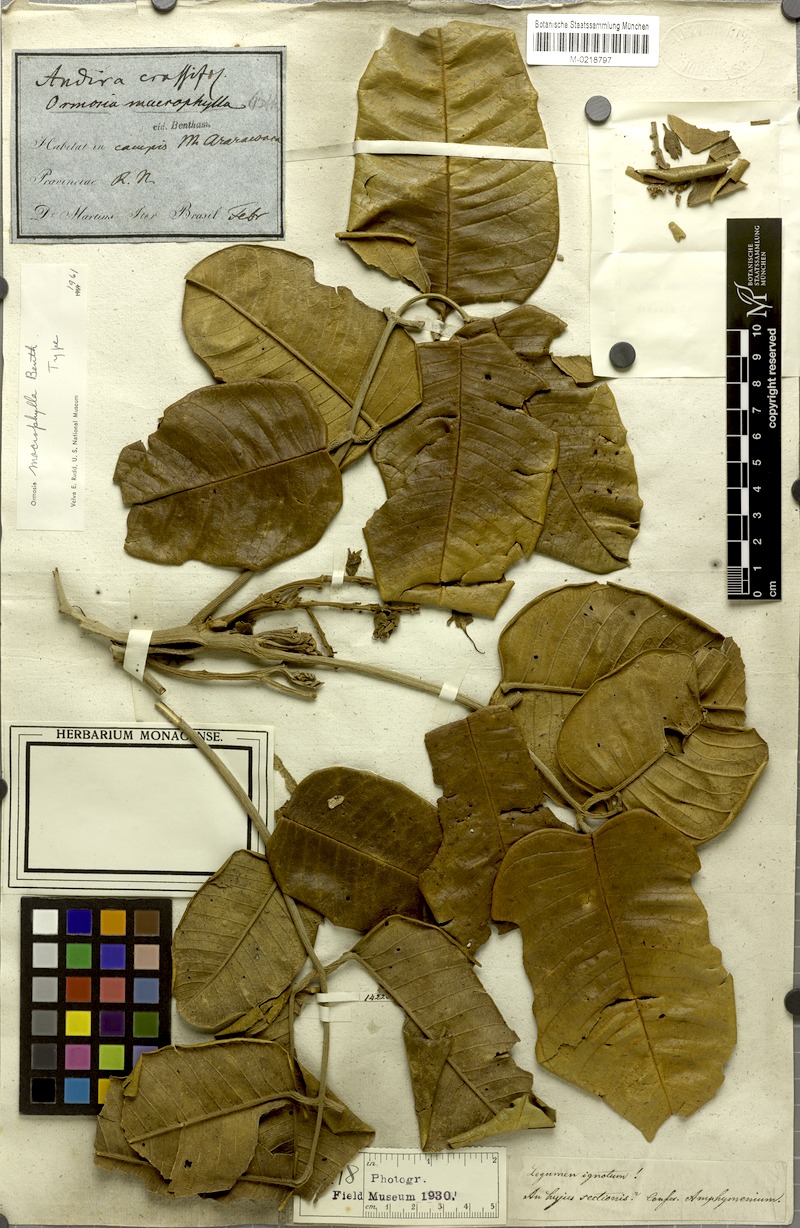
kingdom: Plantae
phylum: Tracheophyta
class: Magnoliopsida
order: Fabales
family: Fabaceae
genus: Ormosia
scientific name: Ormosia macrophylla
